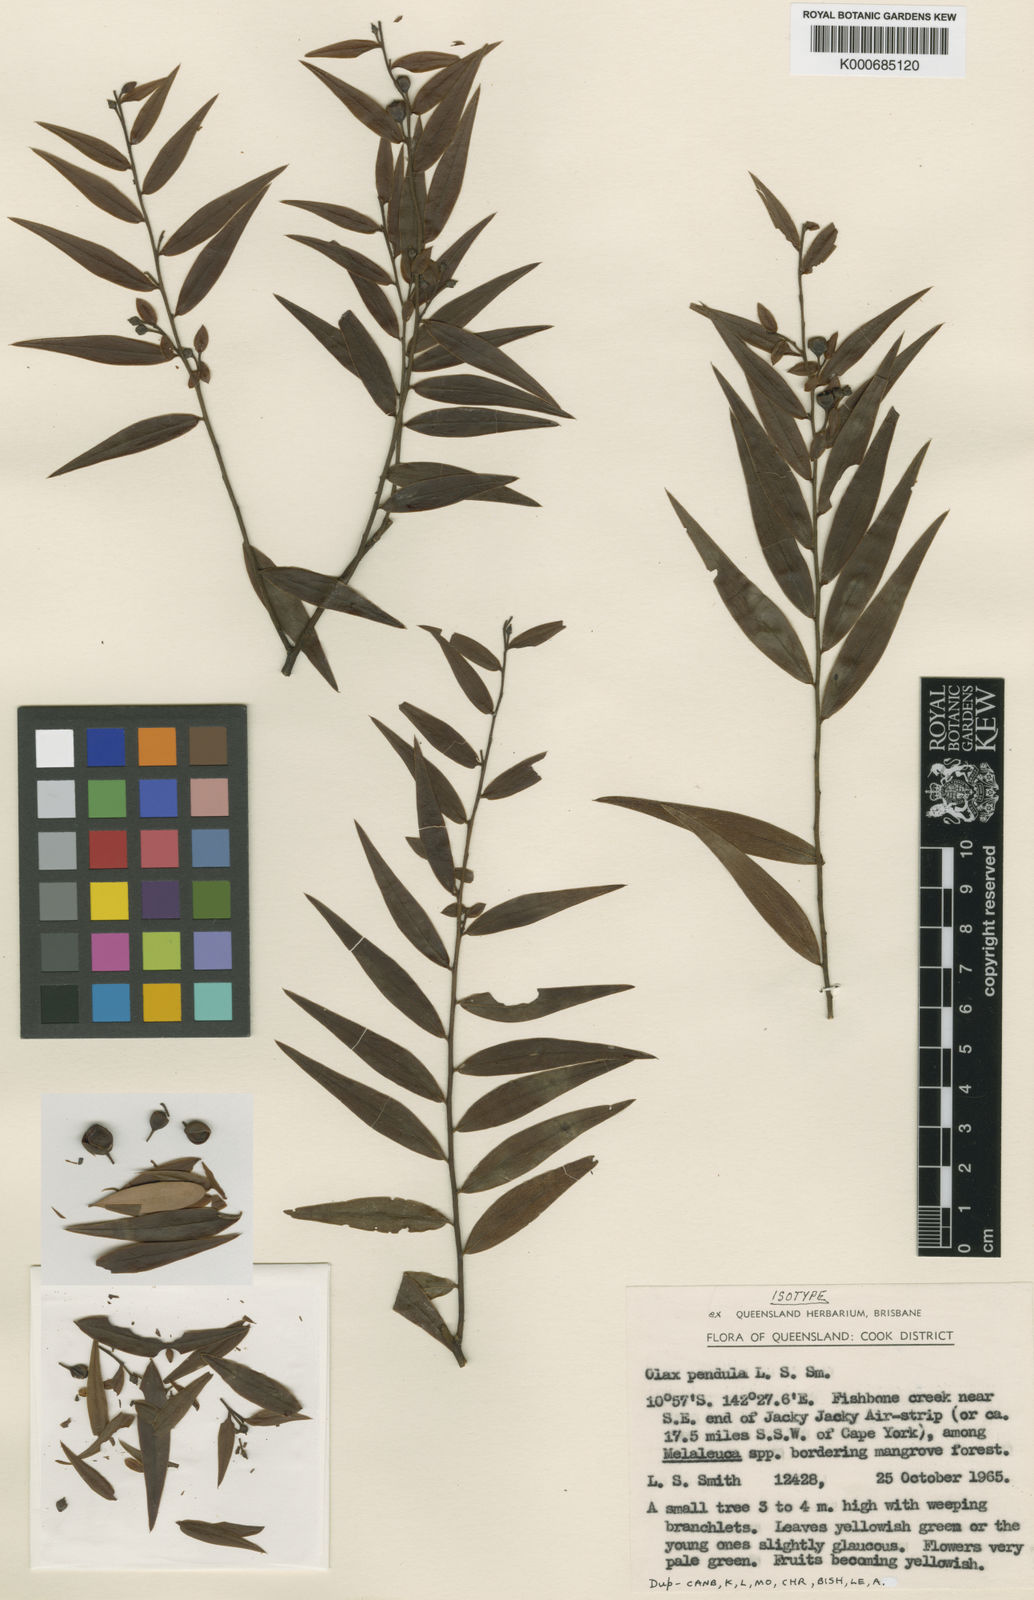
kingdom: Plantae
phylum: Tracheophyta
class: Magnoliopsida
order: Santalales
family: Olacaceae
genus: Olax
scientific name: Olax pendula
